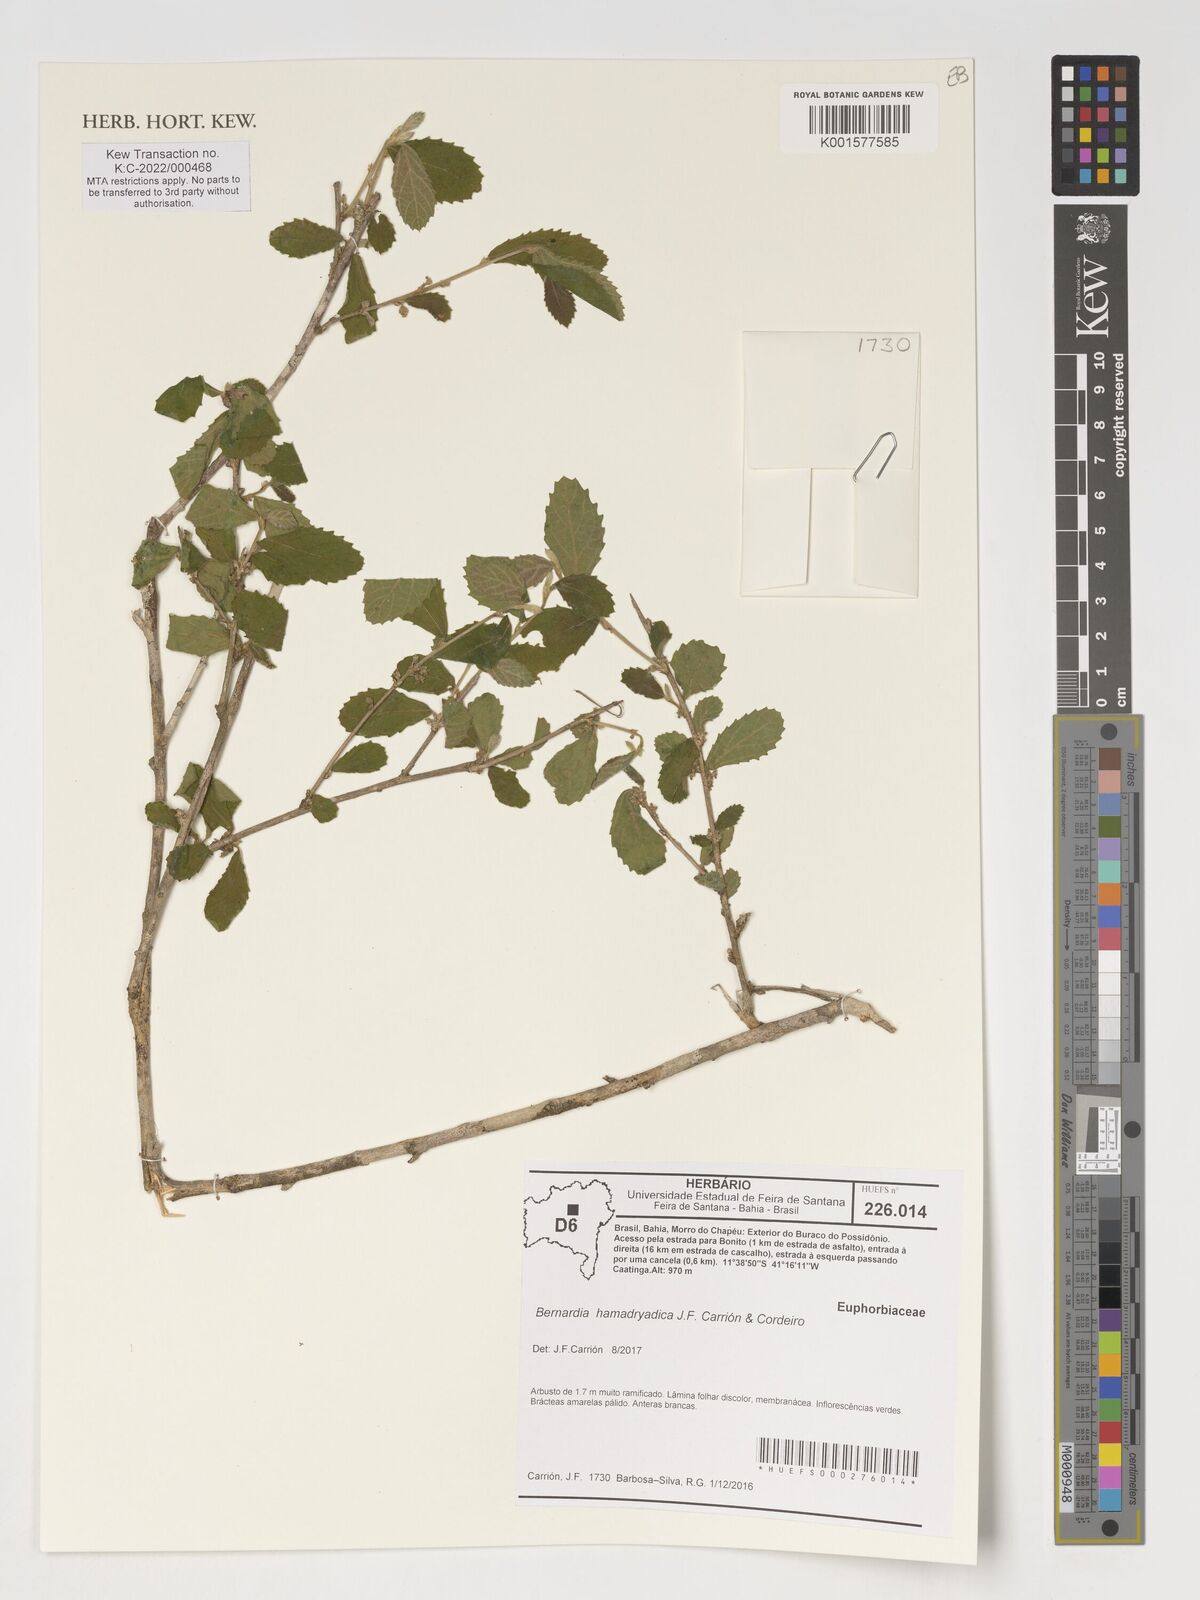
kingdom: Plantae
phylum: Tracheophyta
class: Magnoliopsida
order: Malpighiales
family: Euphorbiaceae
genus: Bernardia
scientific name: Bernardia hamadryadica
